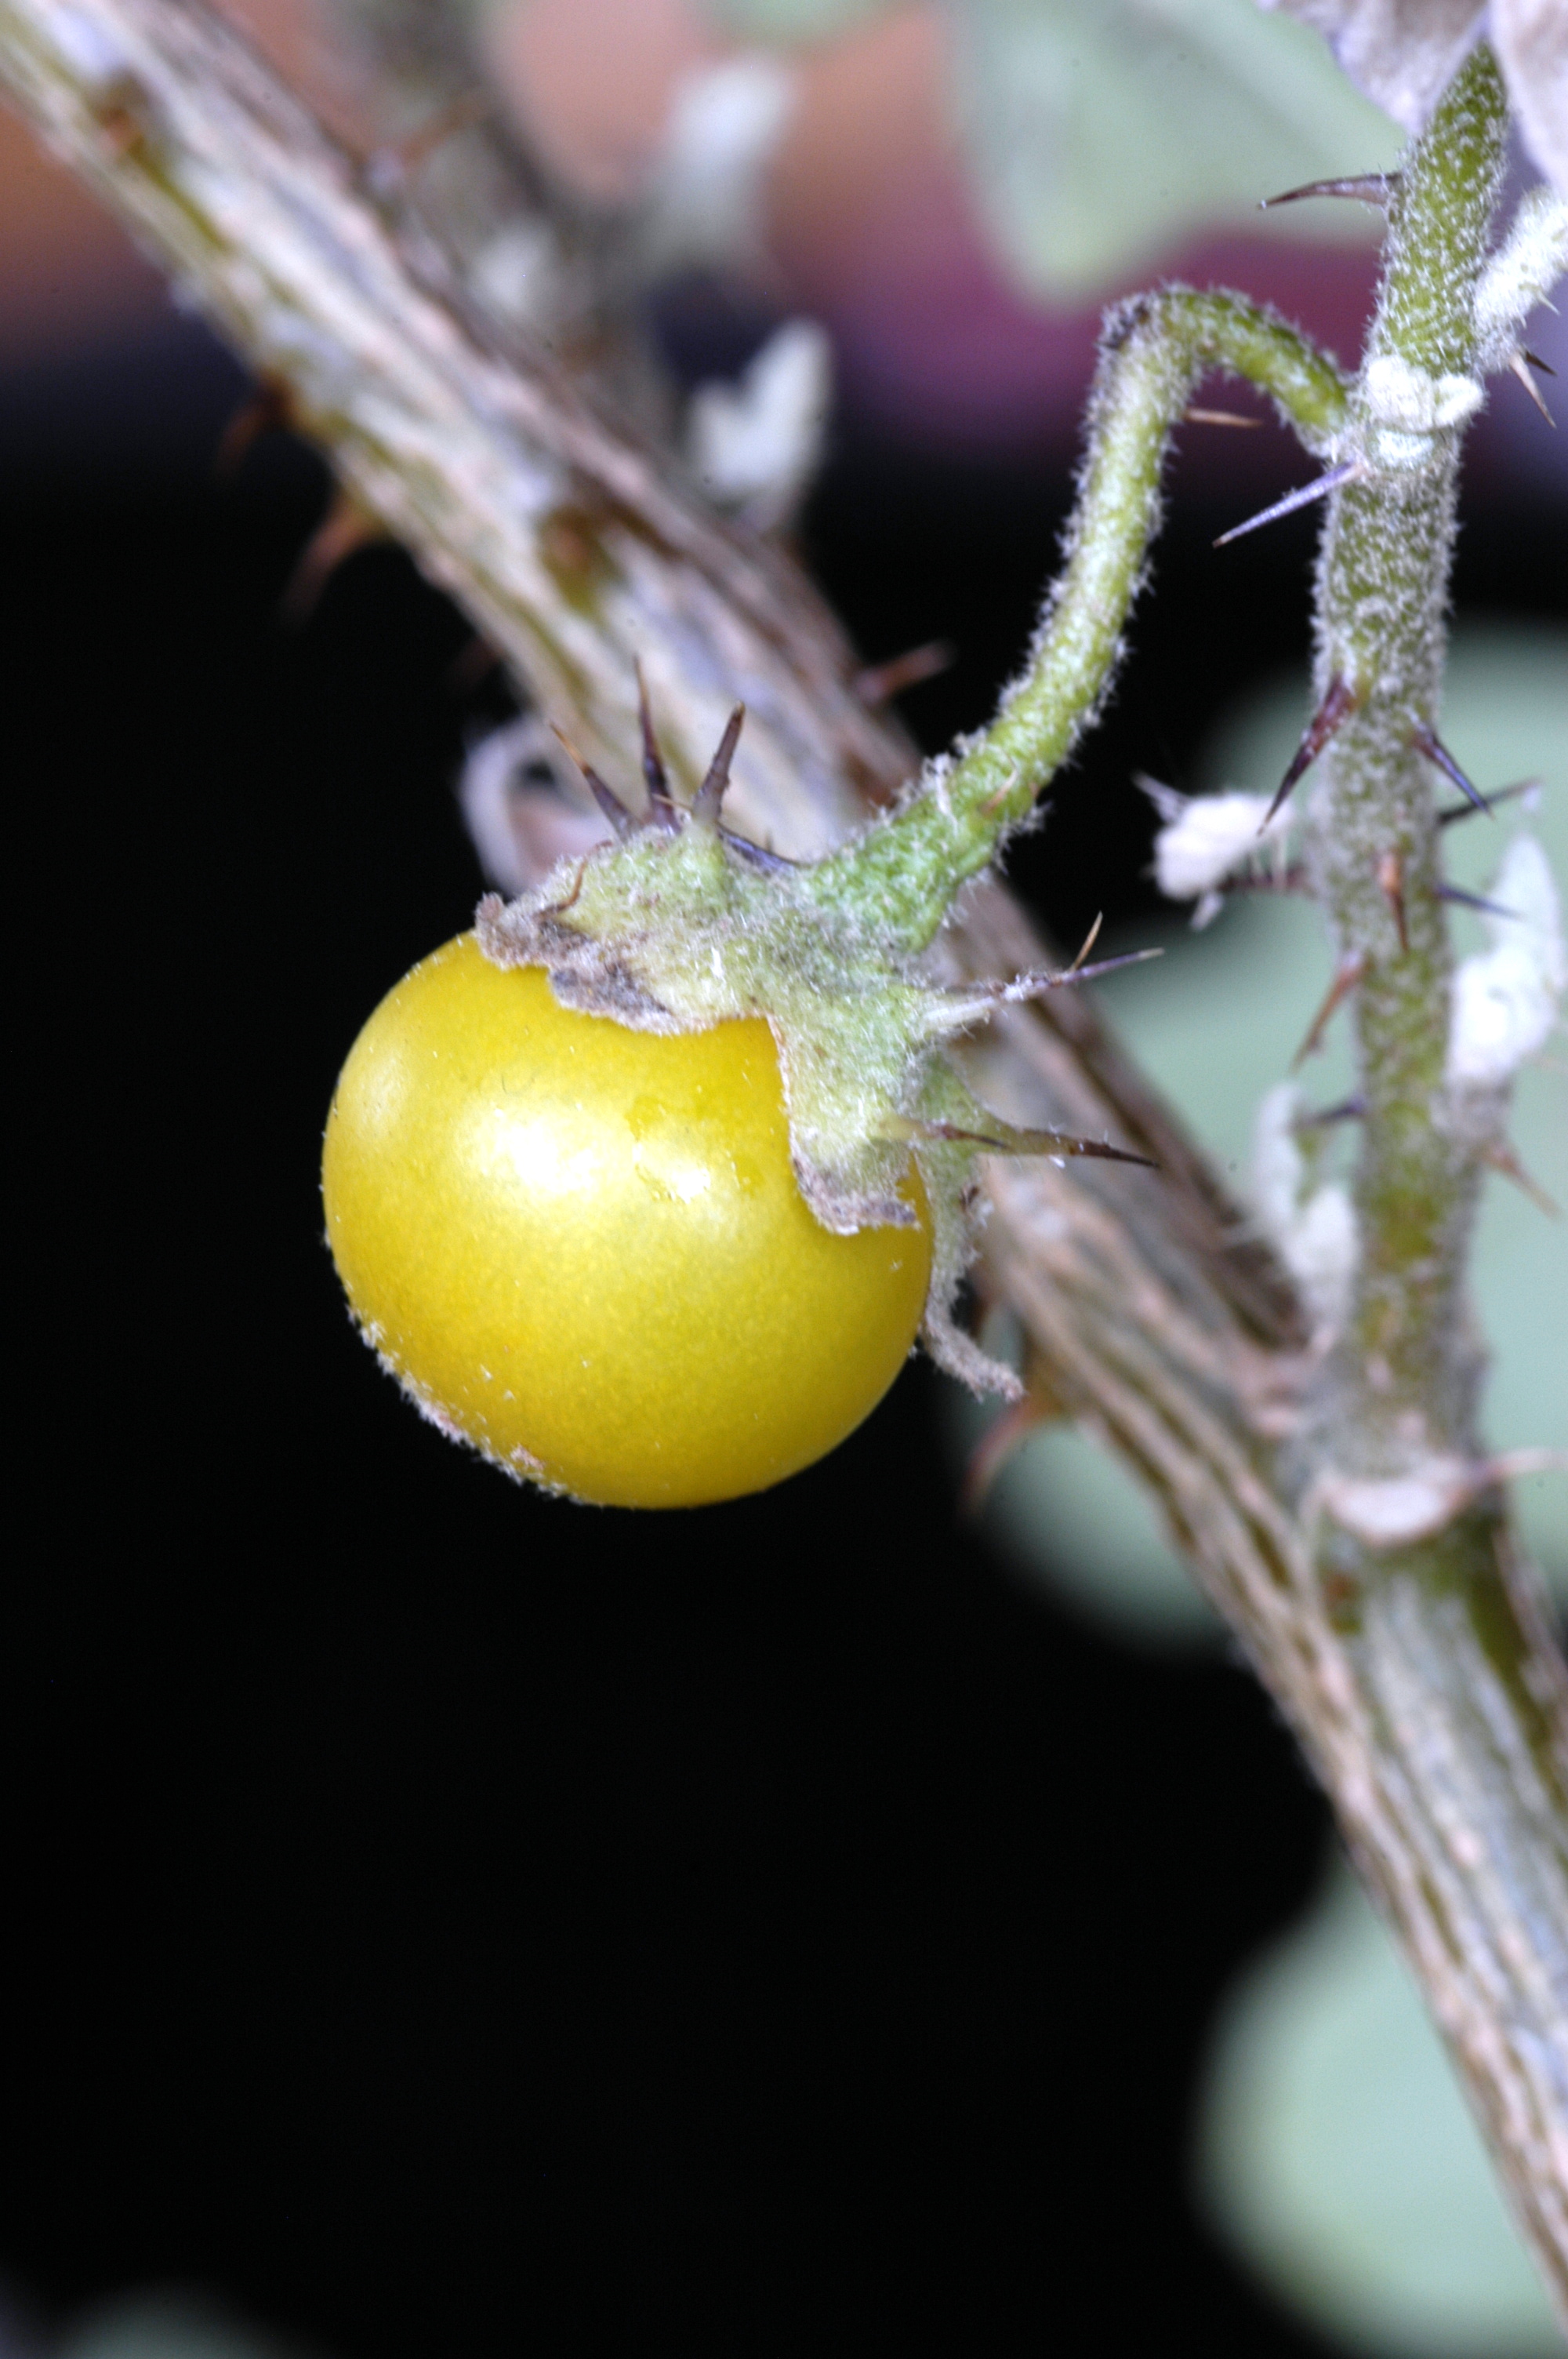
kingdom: Plantae
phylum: Tracheophyta
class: Magnoliopsida
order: Solanales
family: Solanaceae
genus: Solanum
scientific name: Solanum insanum
